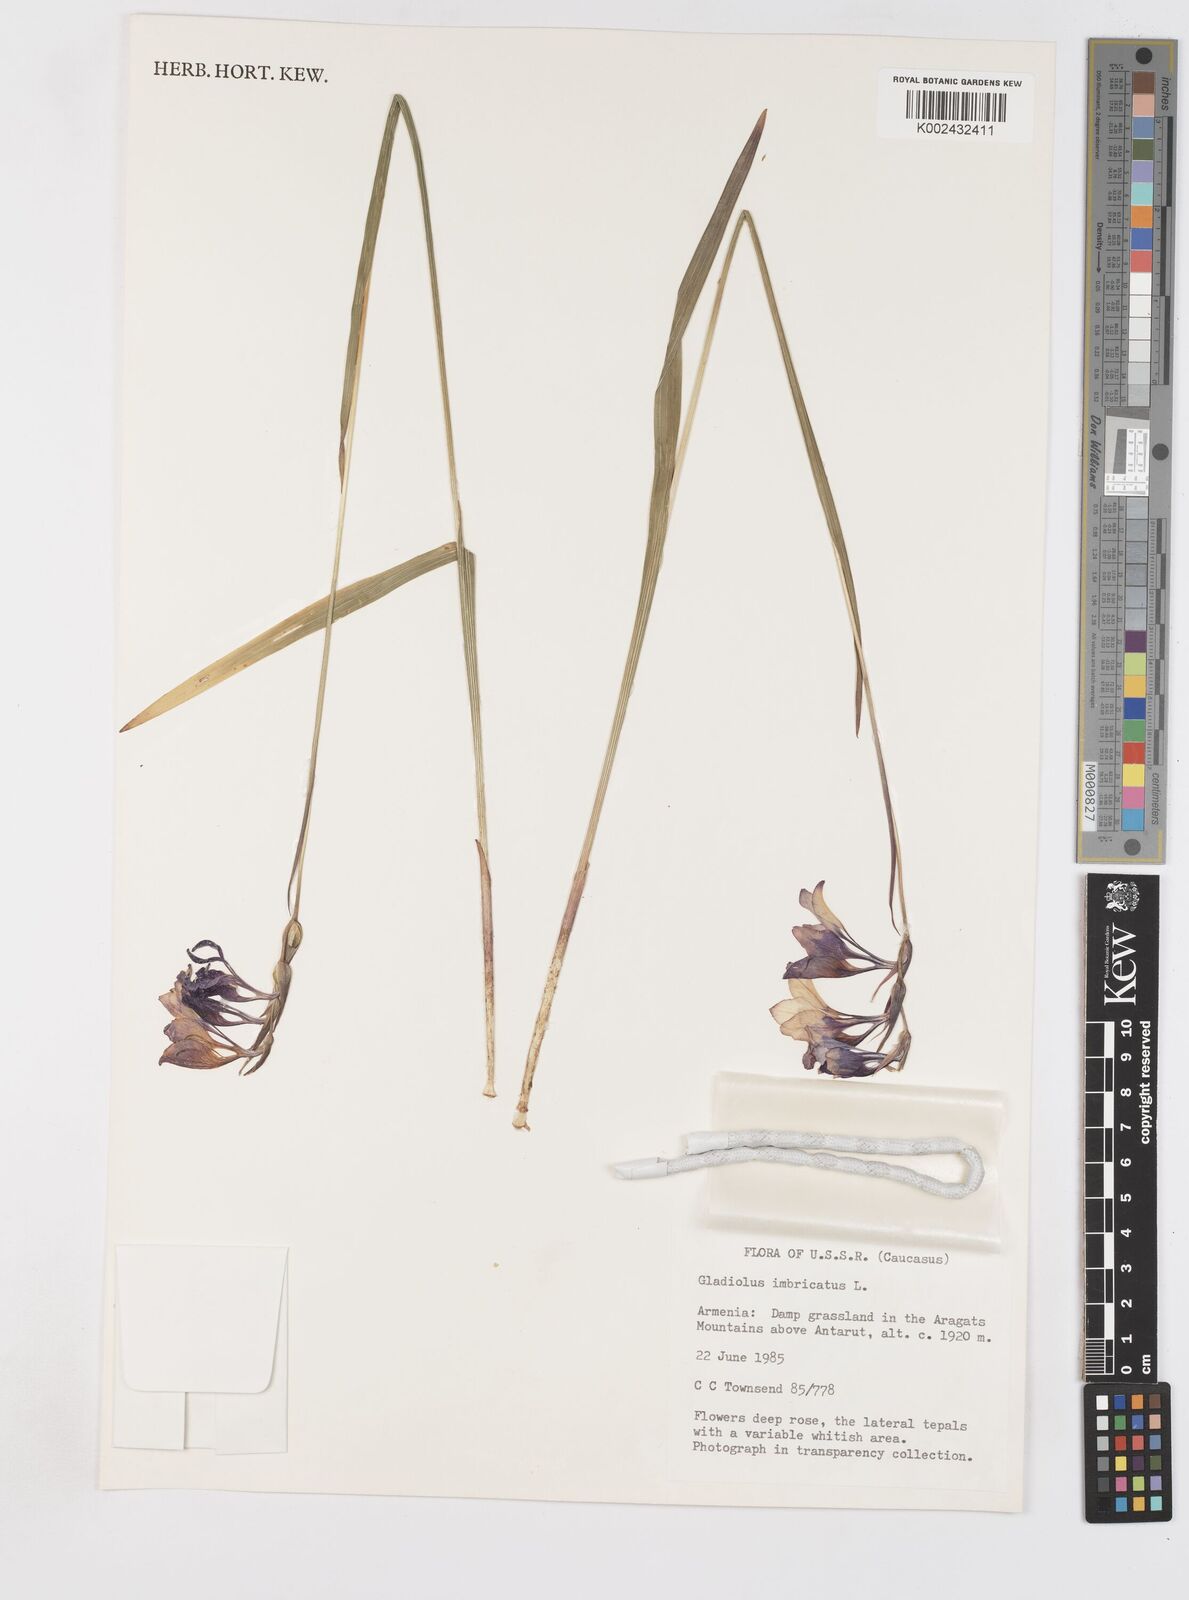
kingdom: Plantae
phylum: Tracheophyta
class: Liliopsida
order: Asparagales
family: Iridaceae
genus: Gladiolus
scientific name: Gladiolus kotschyanus
